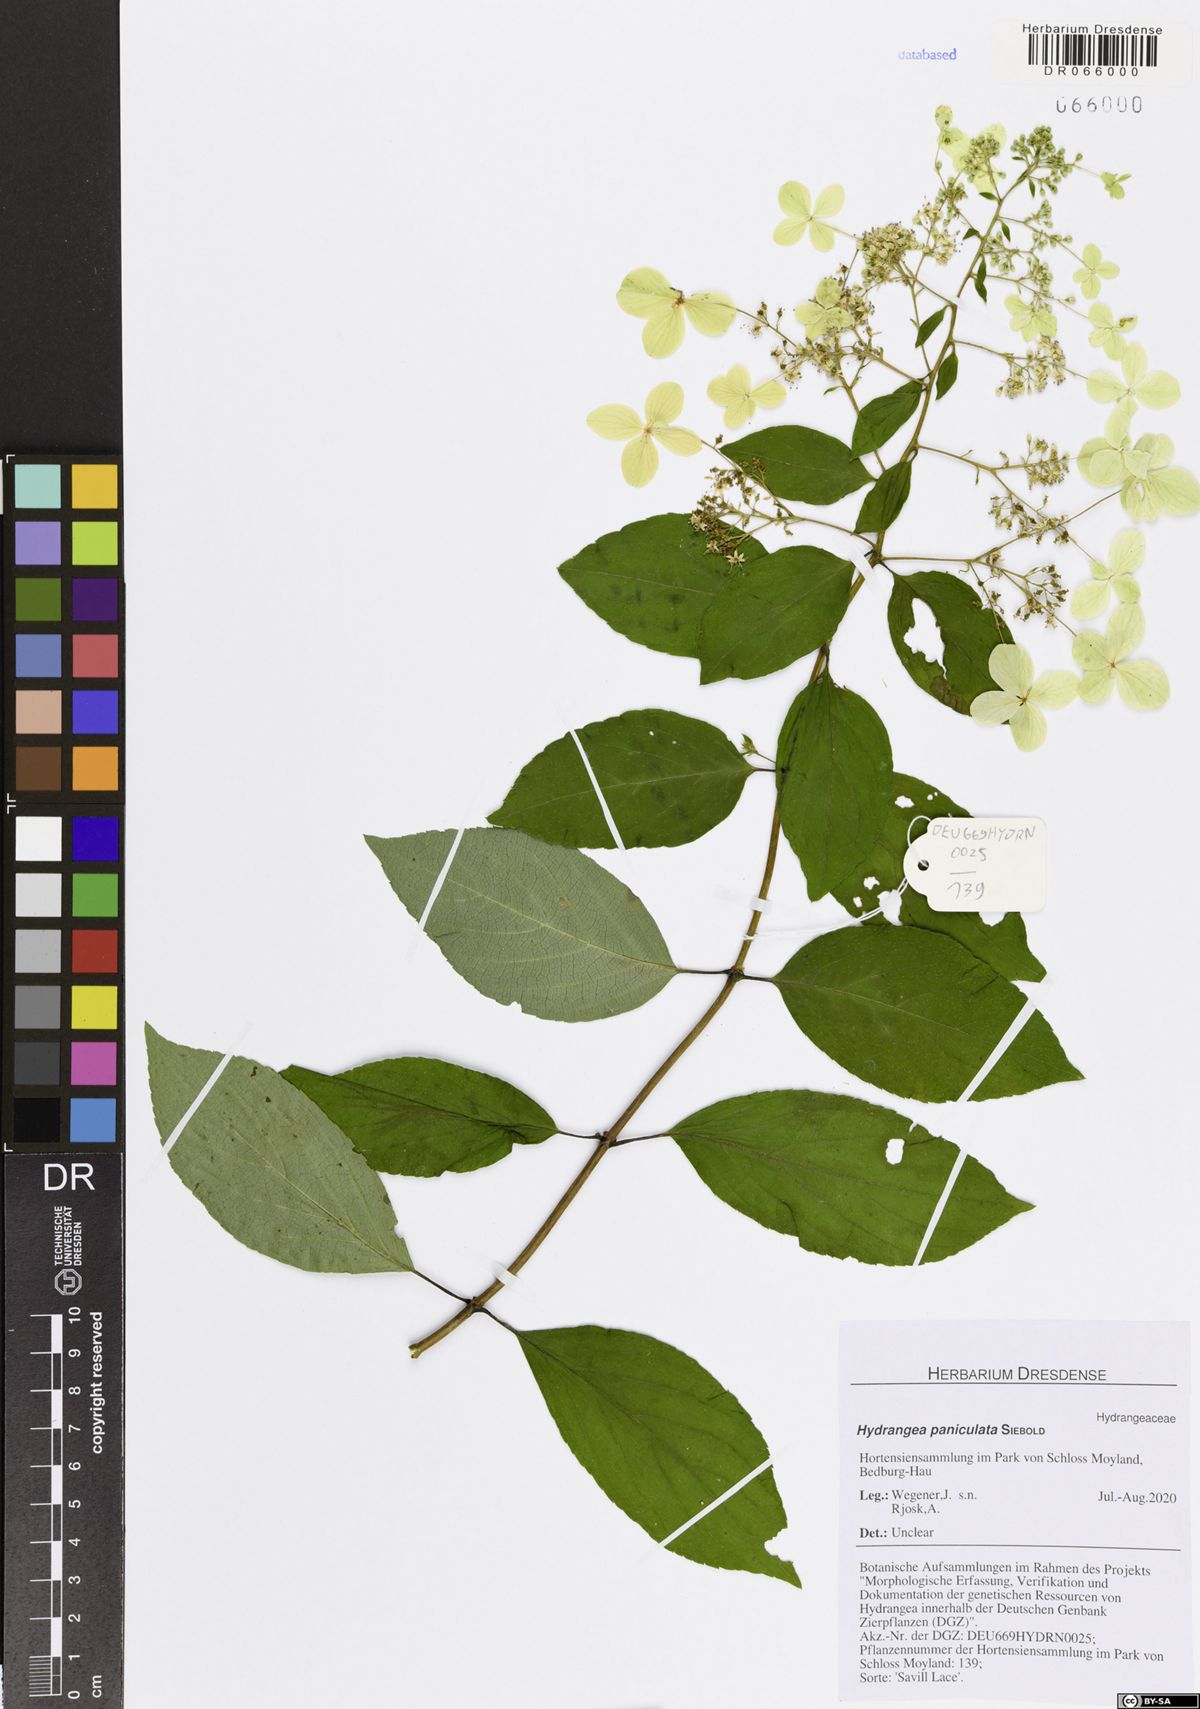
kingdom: Plantae
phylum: Tracheophyta
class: Magnoliopsida
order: Cornales
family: Hydrangeaceae
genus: Hydrangea
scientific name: Hydrangea paniculata
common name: Panicled hydrangea
